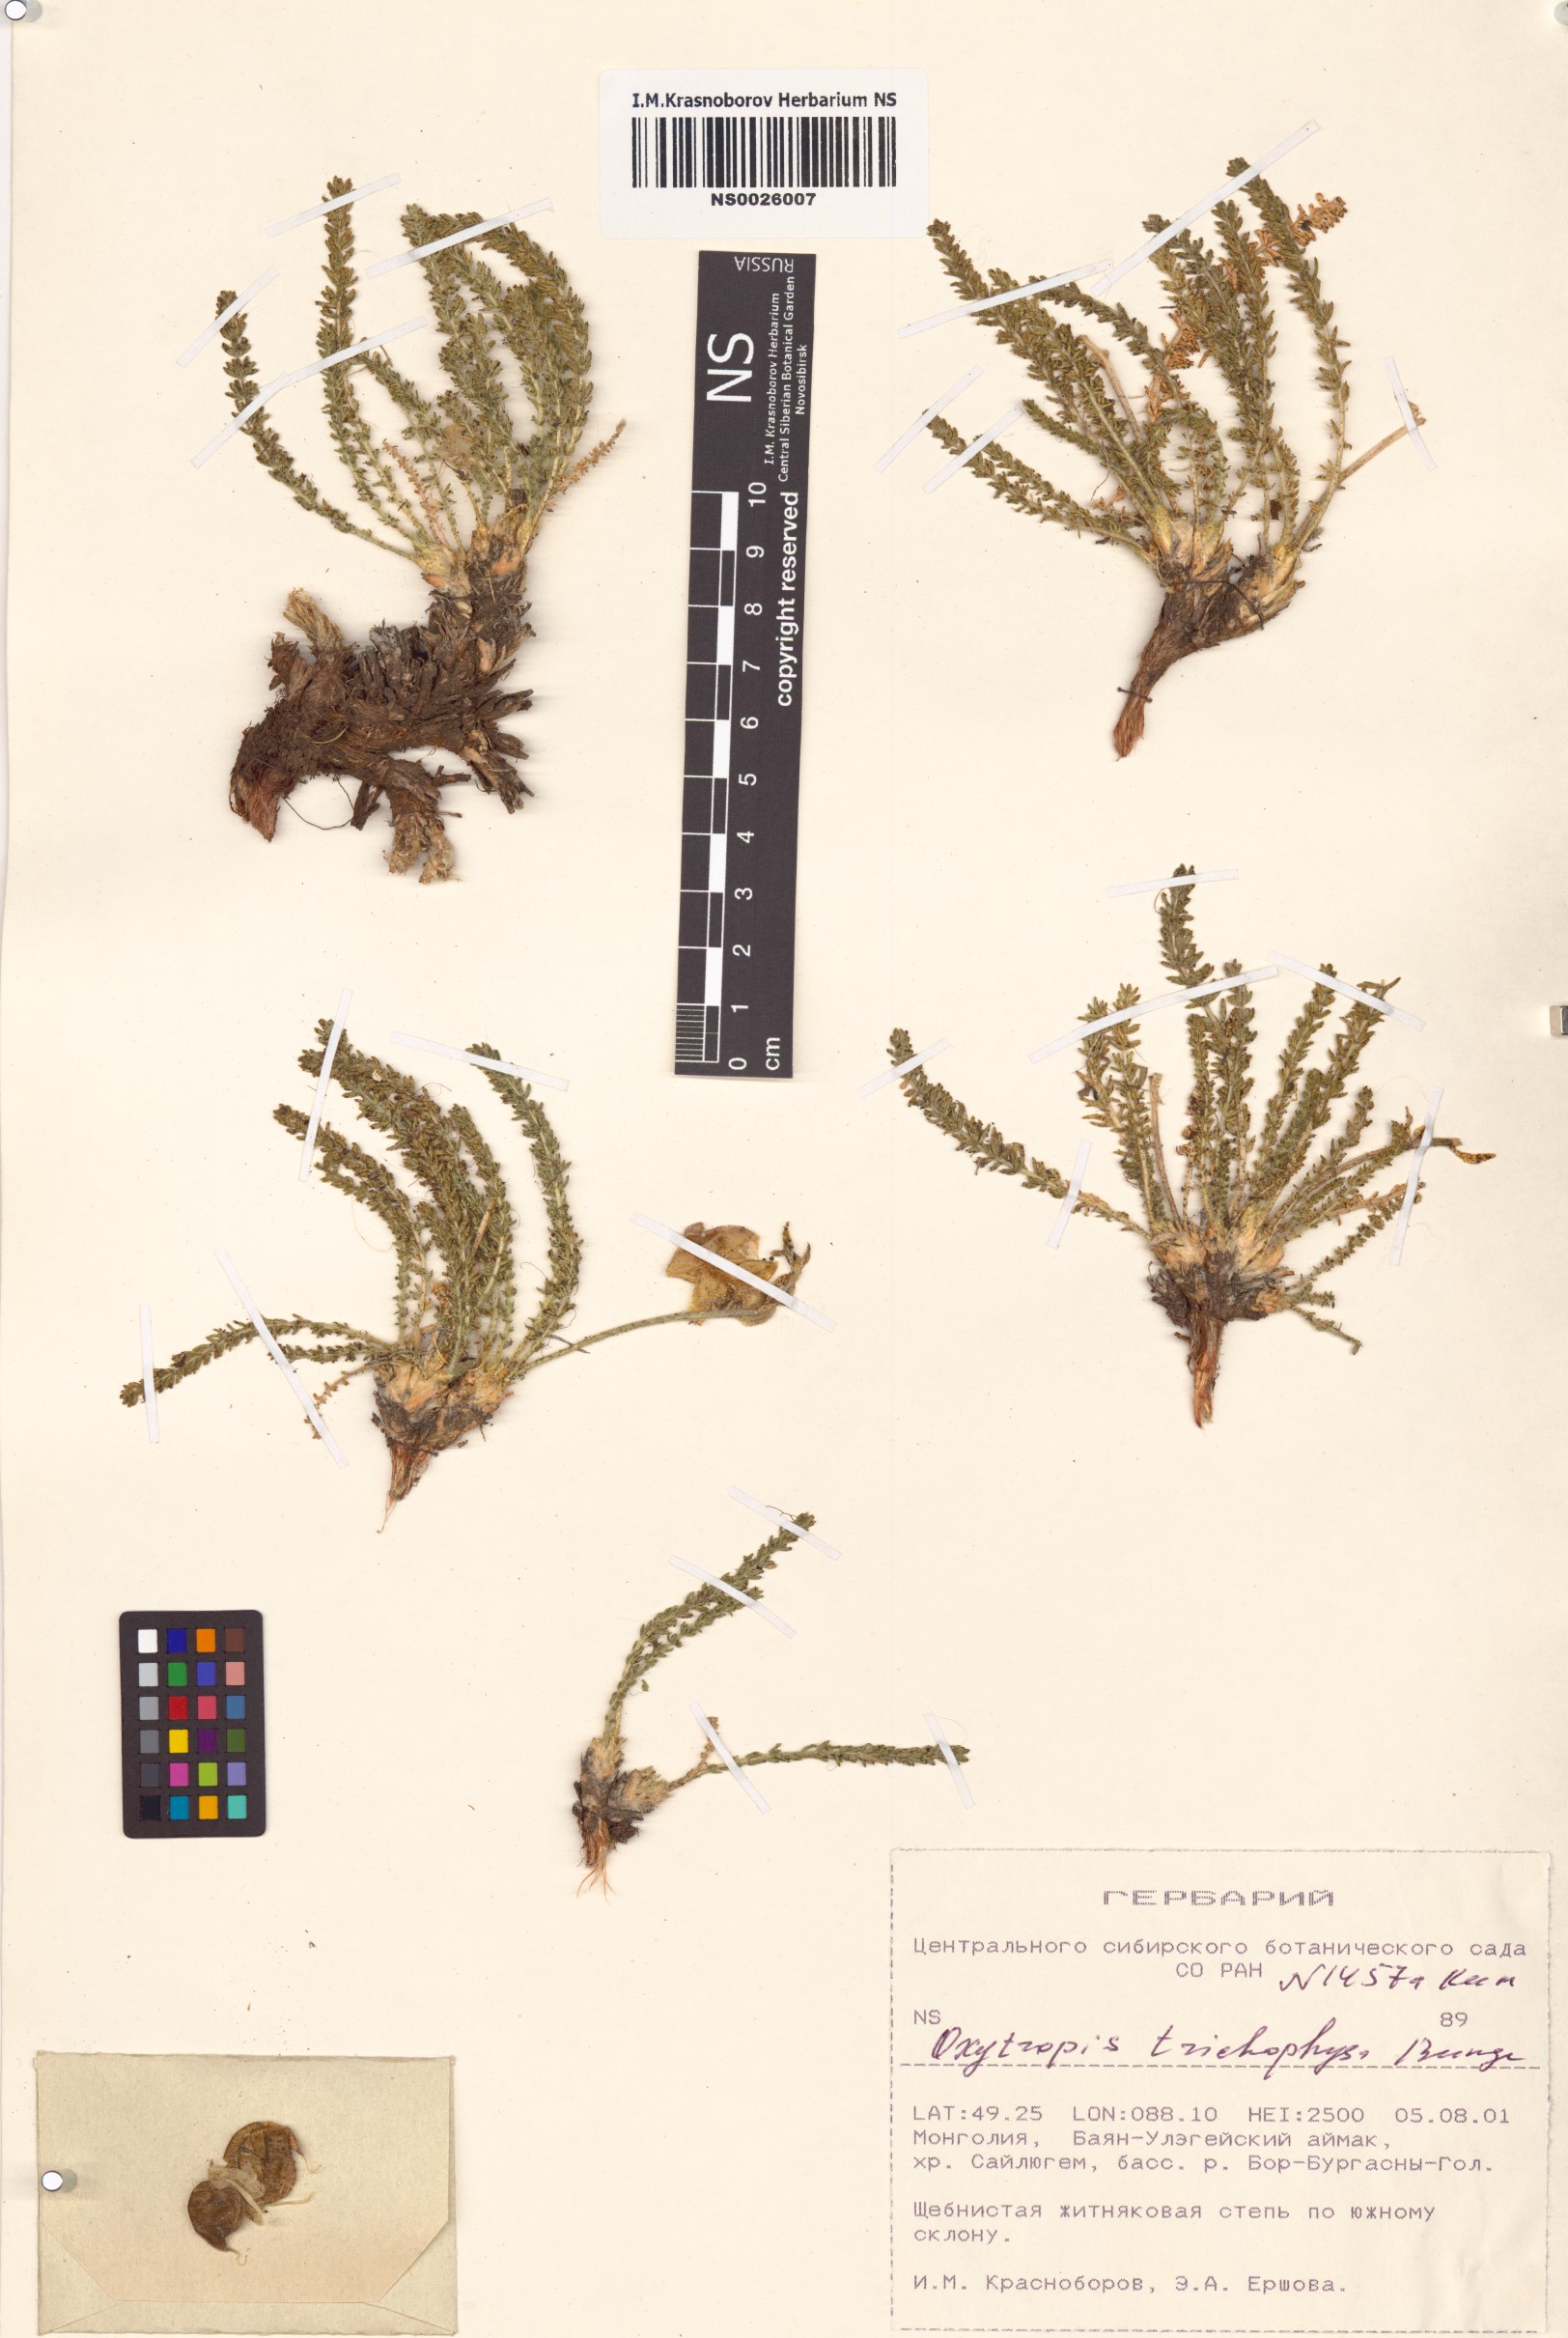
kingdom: Plantae
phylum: Tracheophyta
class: Magnoliopsida
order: Fabales
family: Fabaceae
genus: Oxytropis
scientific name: Oxytropis trichophysa
